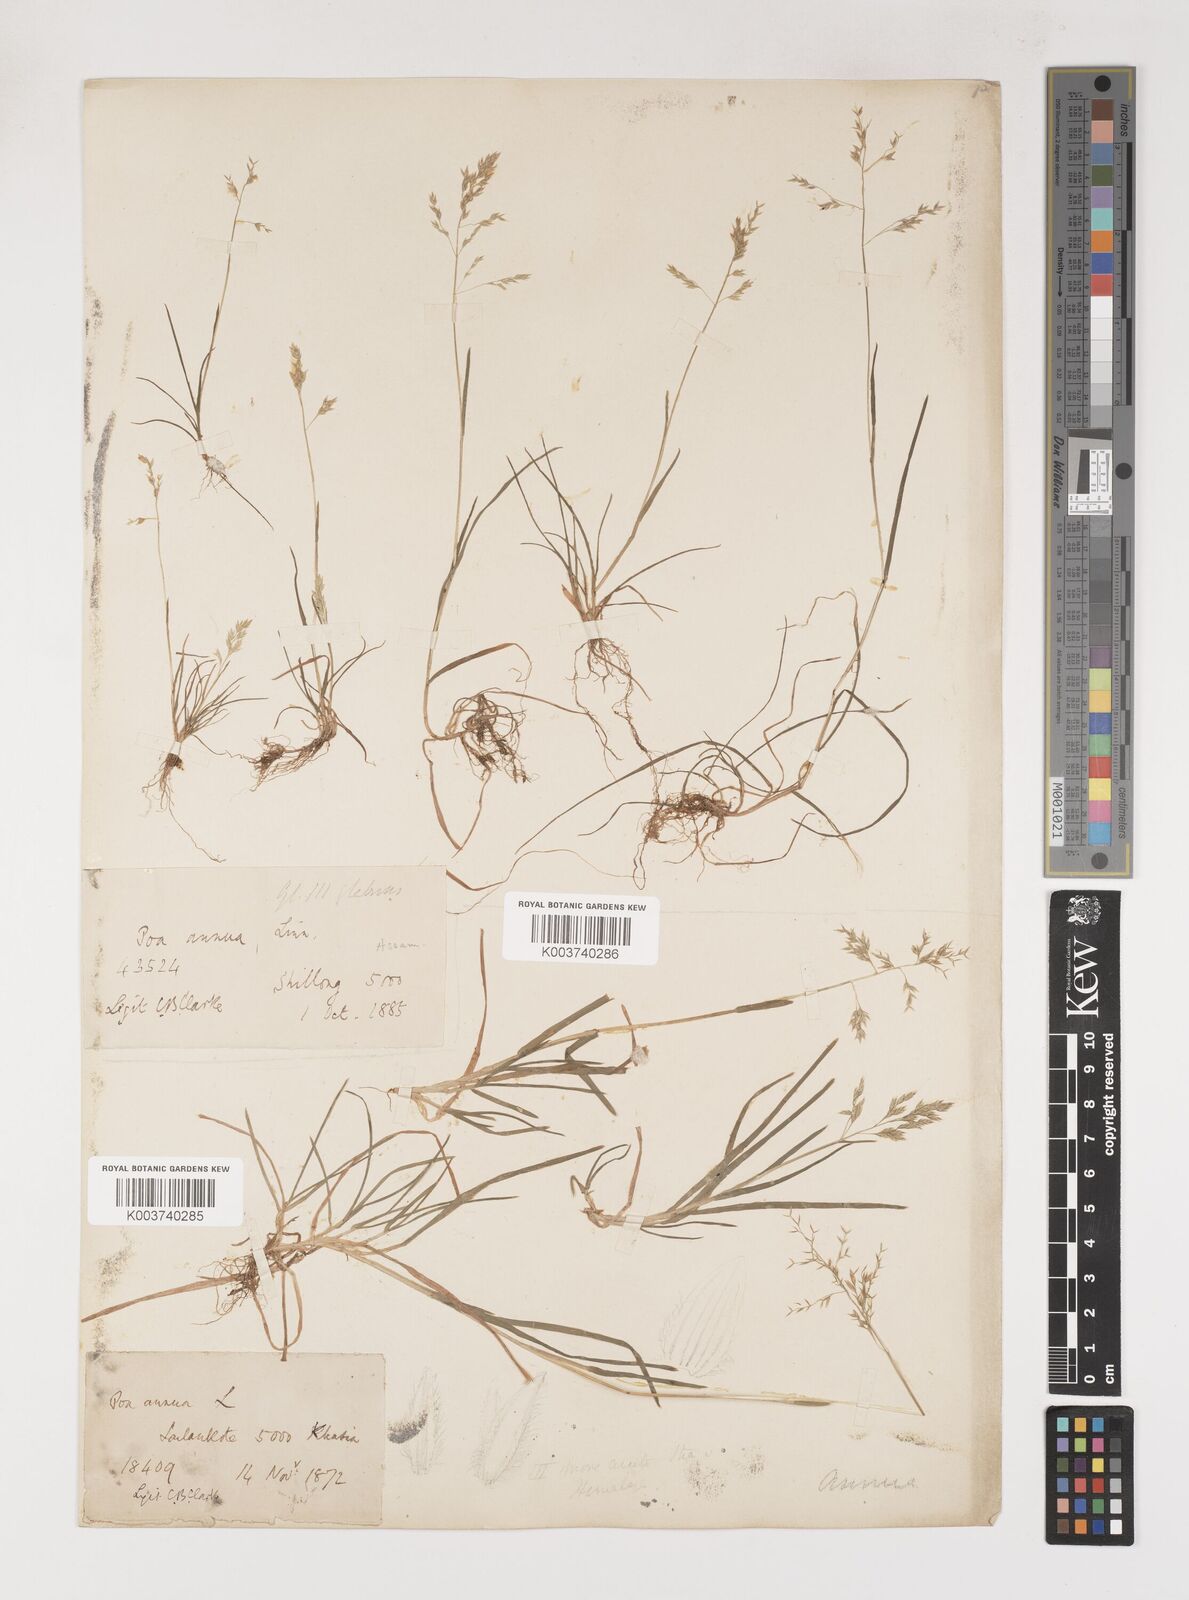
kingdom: Plantae
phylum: Tracheophyta
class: Liliopsida
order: Poales
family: Poaceae
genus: Poa
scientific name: Poa annua
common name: Annual bluegrass
